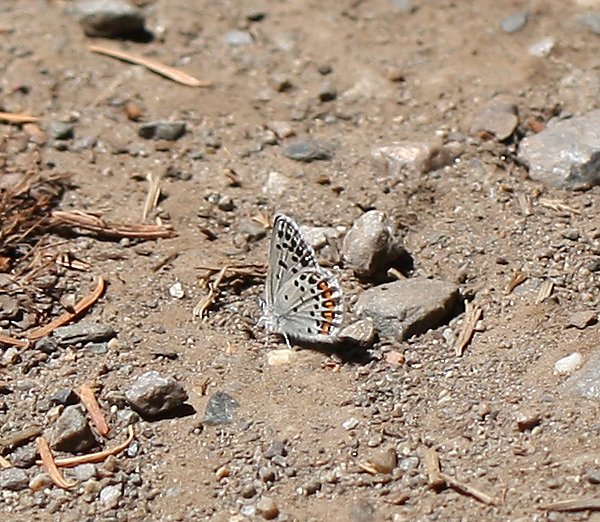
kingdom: Animalia
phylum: Arthropoda
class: Insecta
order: Lepidoptera
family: Lycaenidae
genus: Plebejus
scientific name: Plebejus lupini
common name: Lupine Blue
